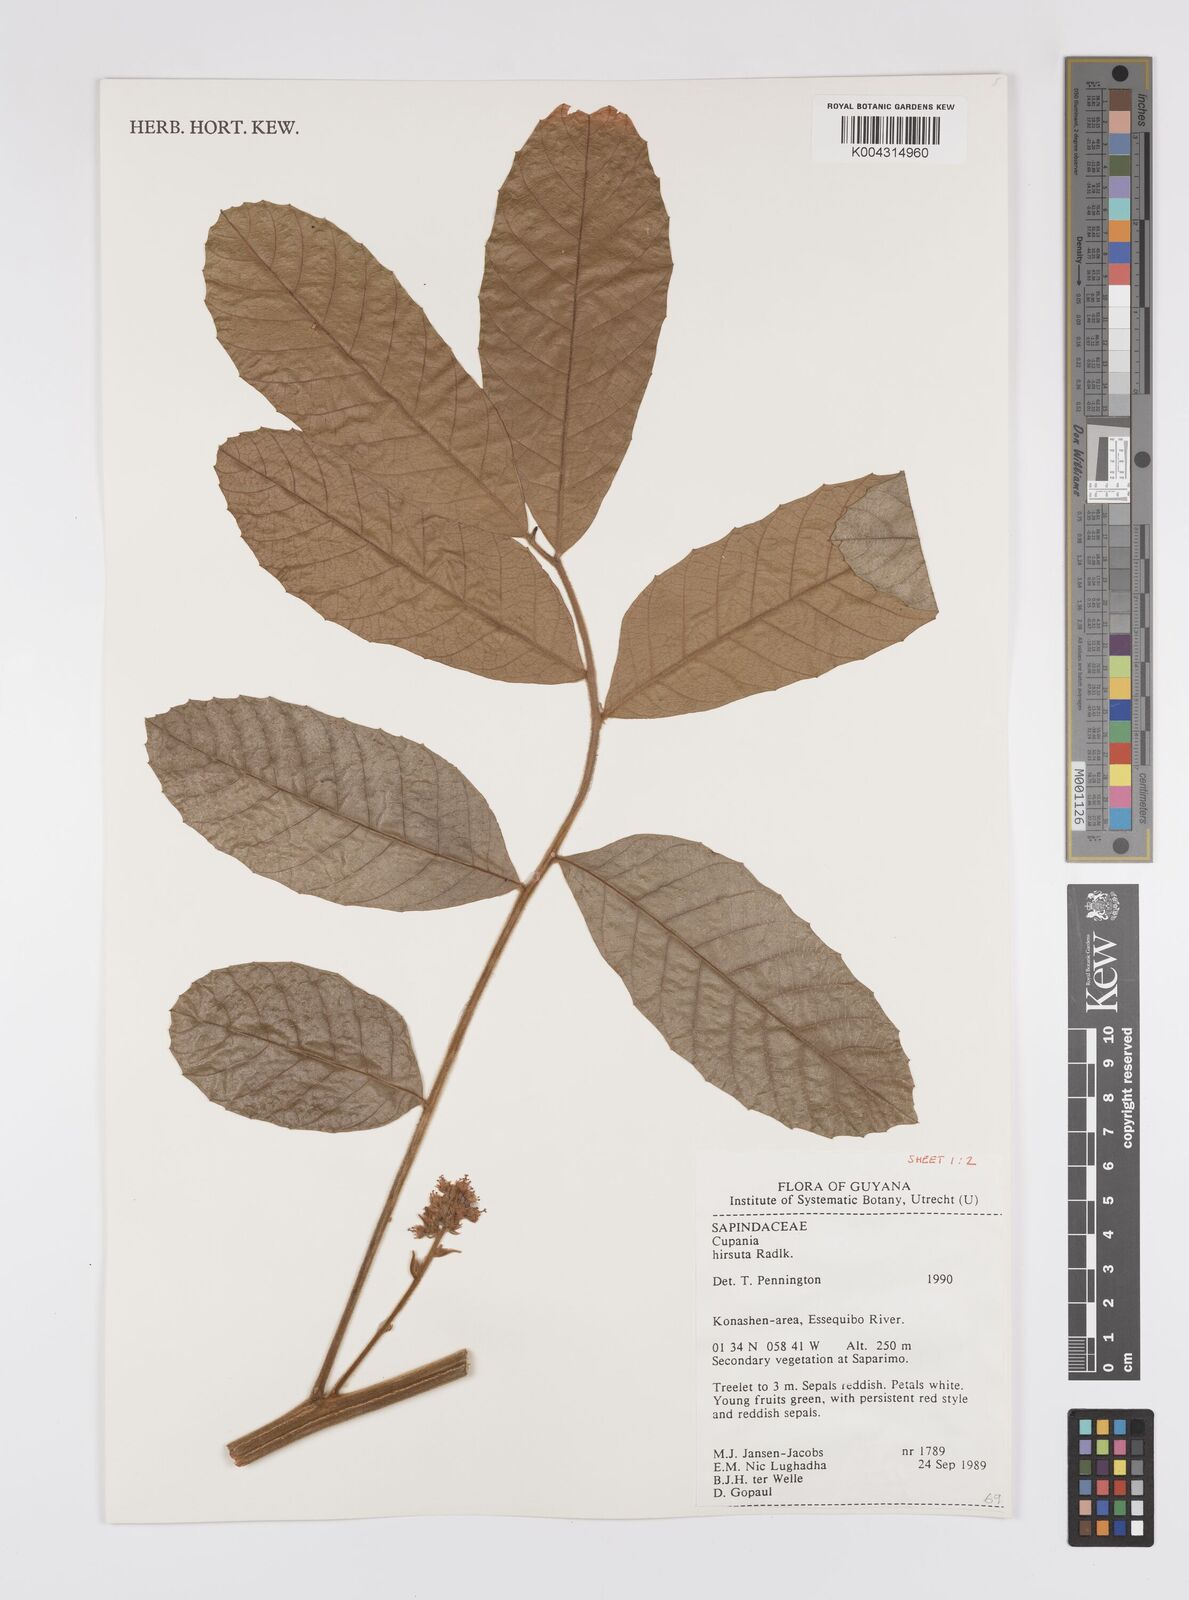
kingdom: Plantae
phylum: Tracheophyta
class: Magnoliopsida
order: Sapindales
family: Sapindaceae
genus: Cupania
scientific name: Cupania
